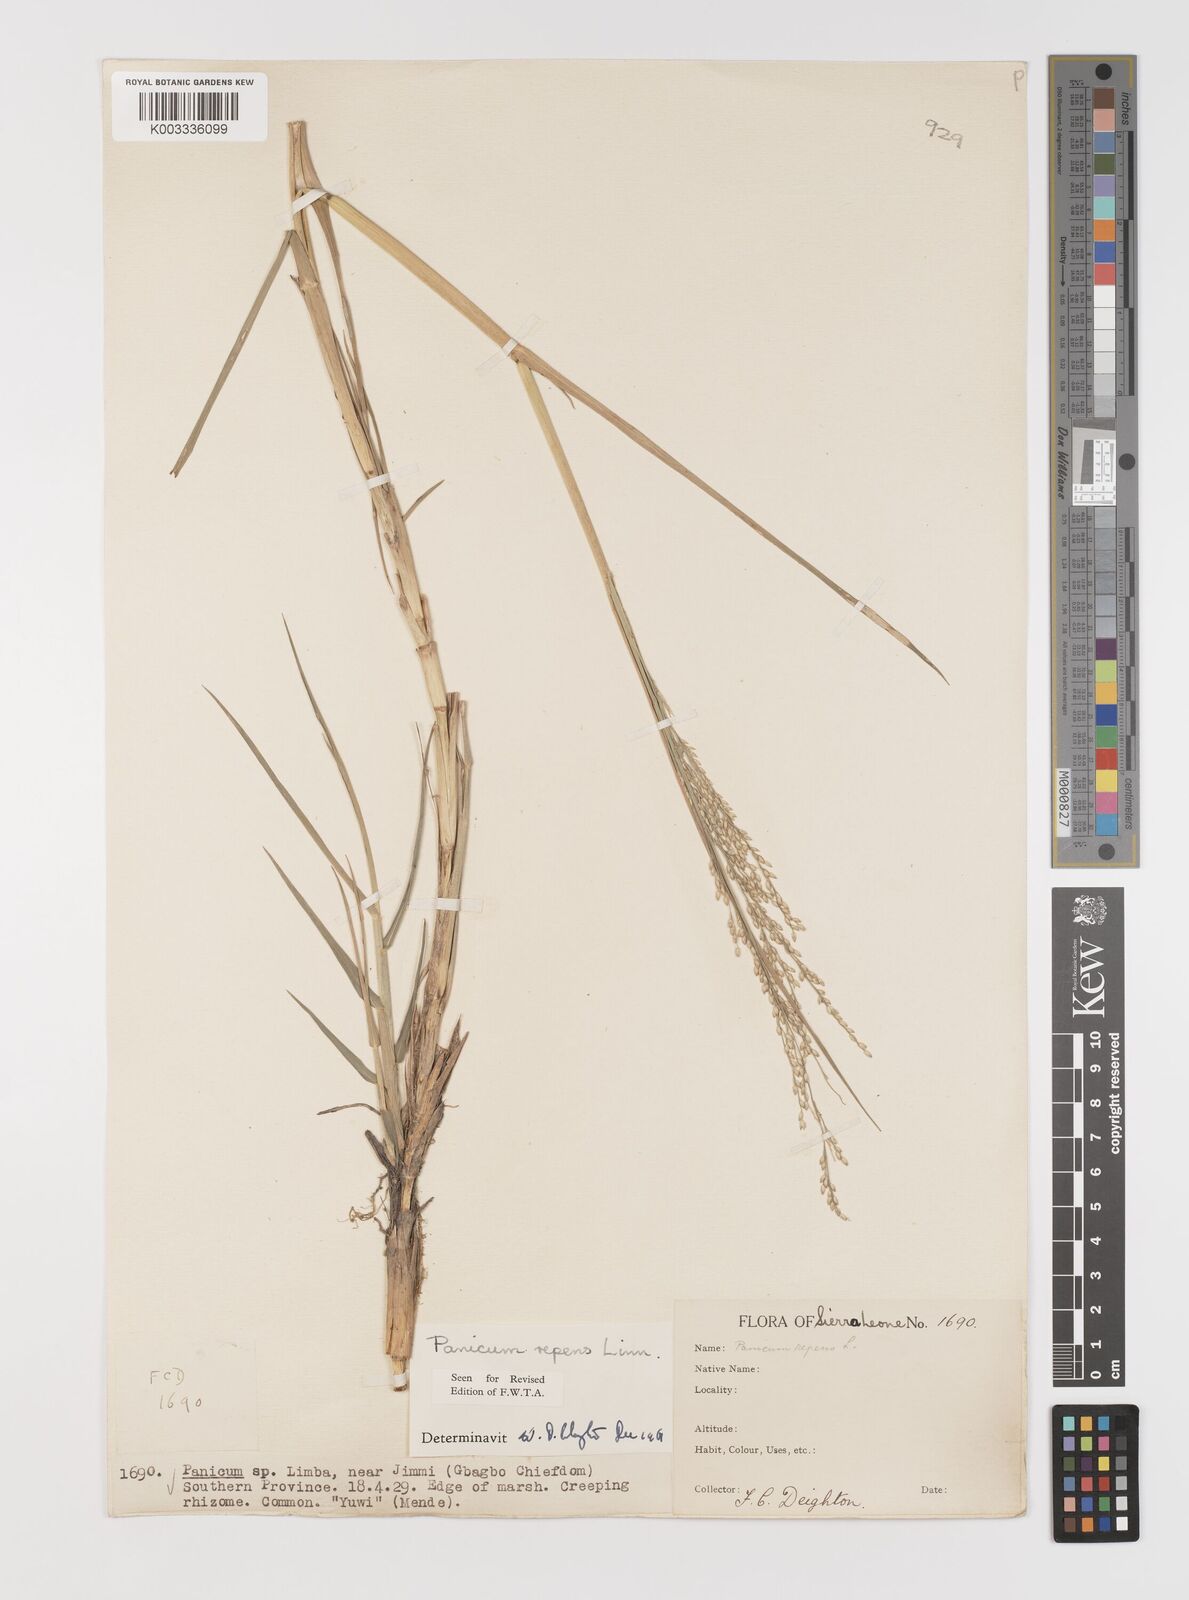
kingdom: Plantae
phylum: Tracheophyta
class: Liliopsida
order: Poales
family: Poaceae
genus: Panicum
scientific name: Panicum repens
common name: Torpedo grass
